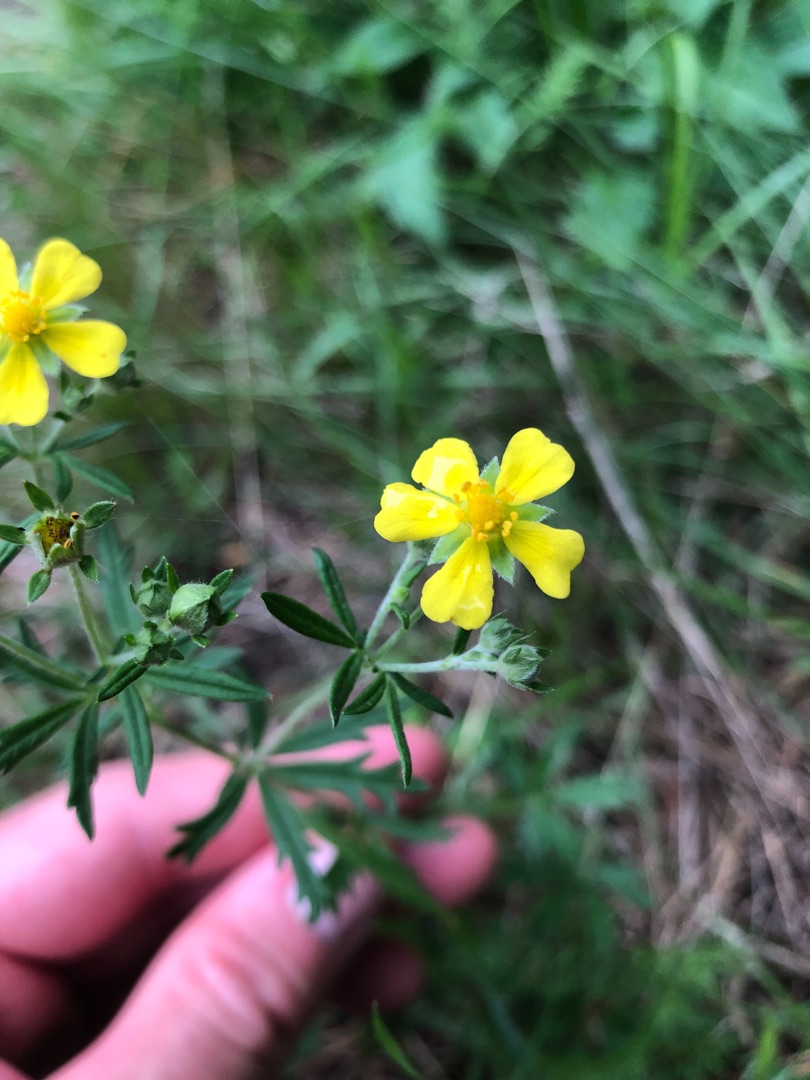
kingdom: Plantae
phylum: Tracheophyta
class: Magnoliopsida
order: Rosales
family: Rosaceae
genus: Potentilla
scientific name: Potentilla argentea
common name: Sølv-potentil
